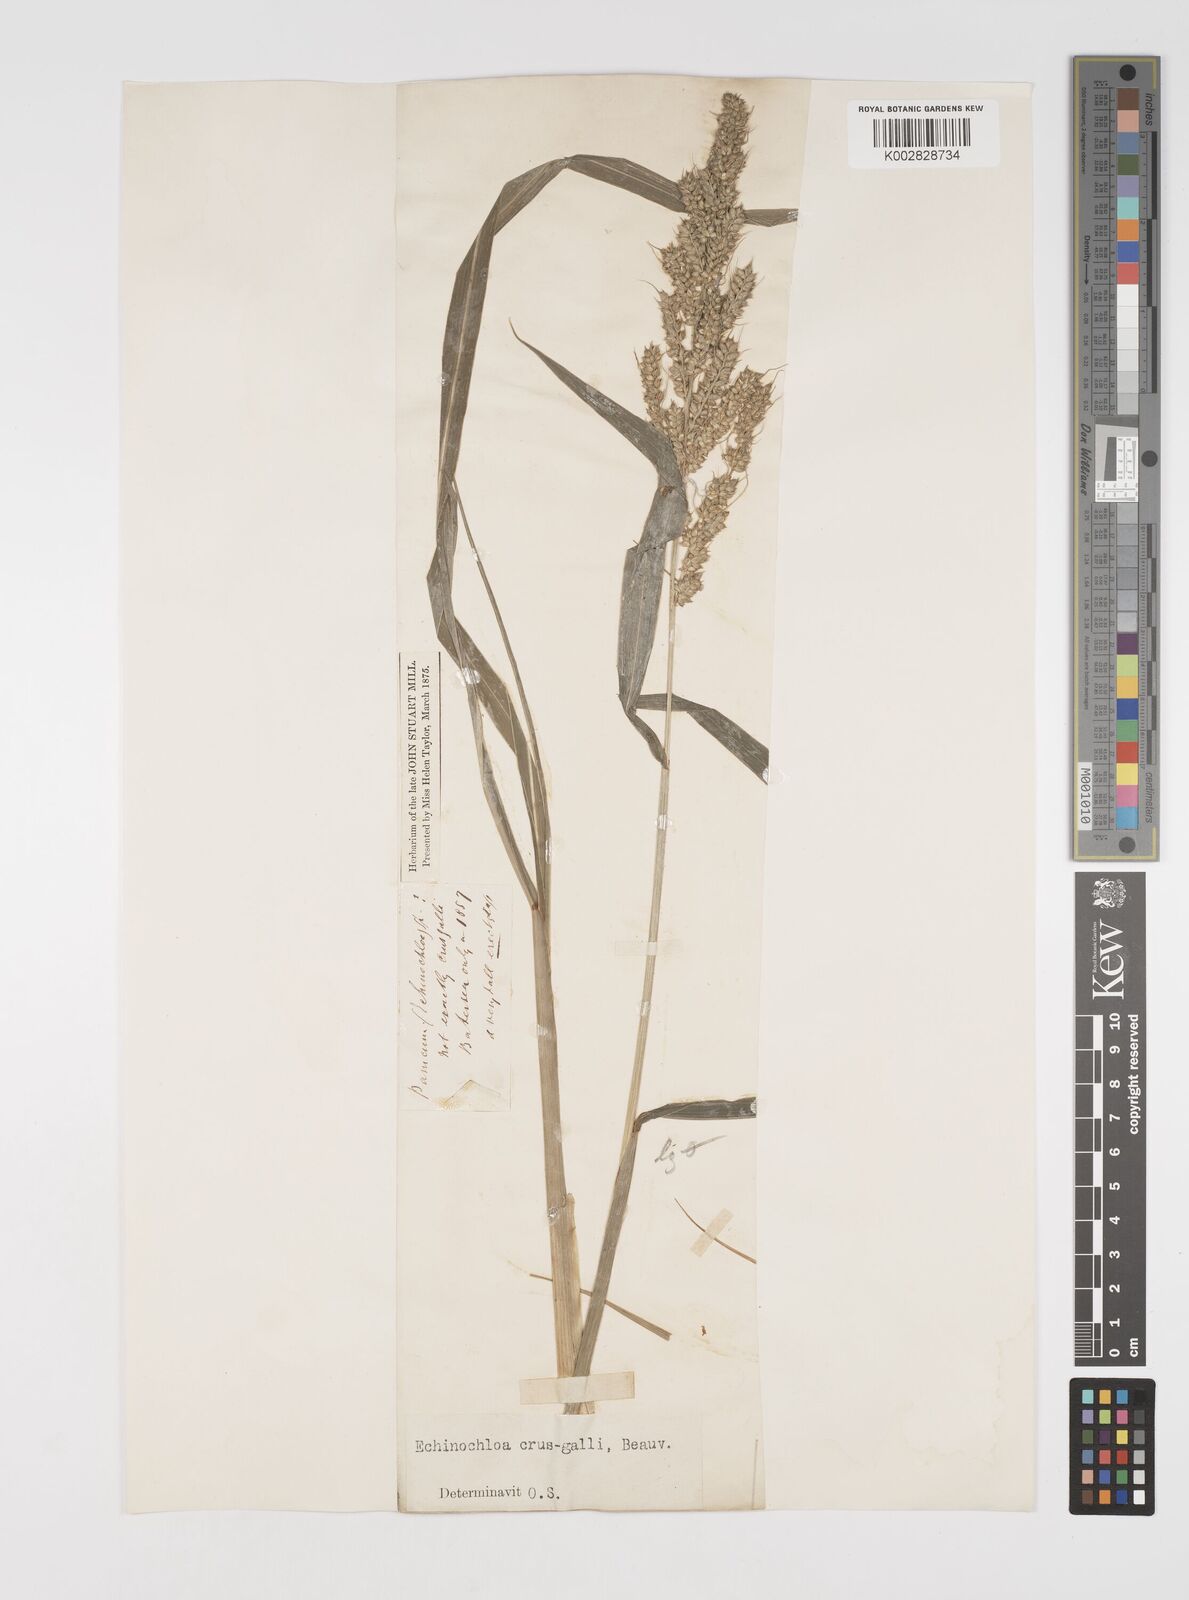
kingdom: Plantae
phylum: Tracheophyta
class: Liliopsida
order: Poales
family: Poaceae
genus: Echinochloa
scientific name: Echinochloa crus-galli
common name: Cockspur
